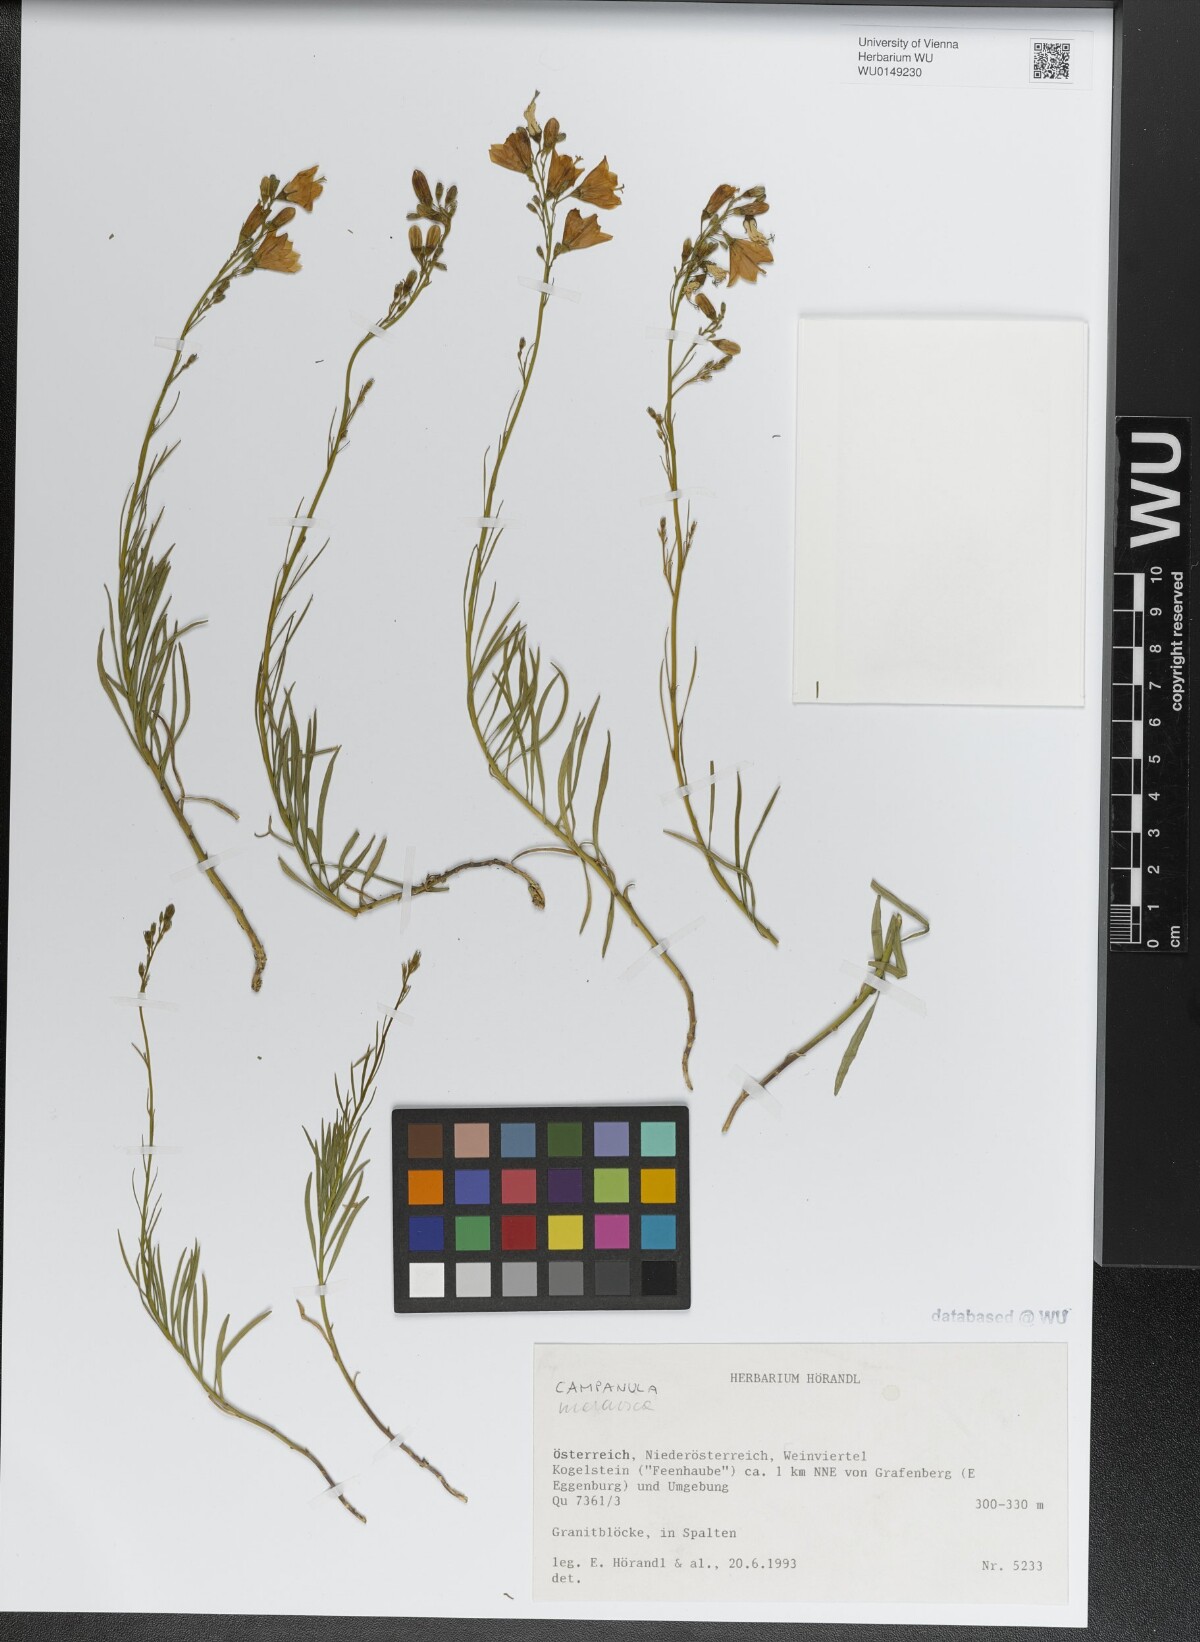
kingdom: Plantae
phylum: Tracheophyta
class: Magnoliopsida
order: Asterales
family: Campanulaceae
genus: Campanula
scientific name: Campanula moravica
